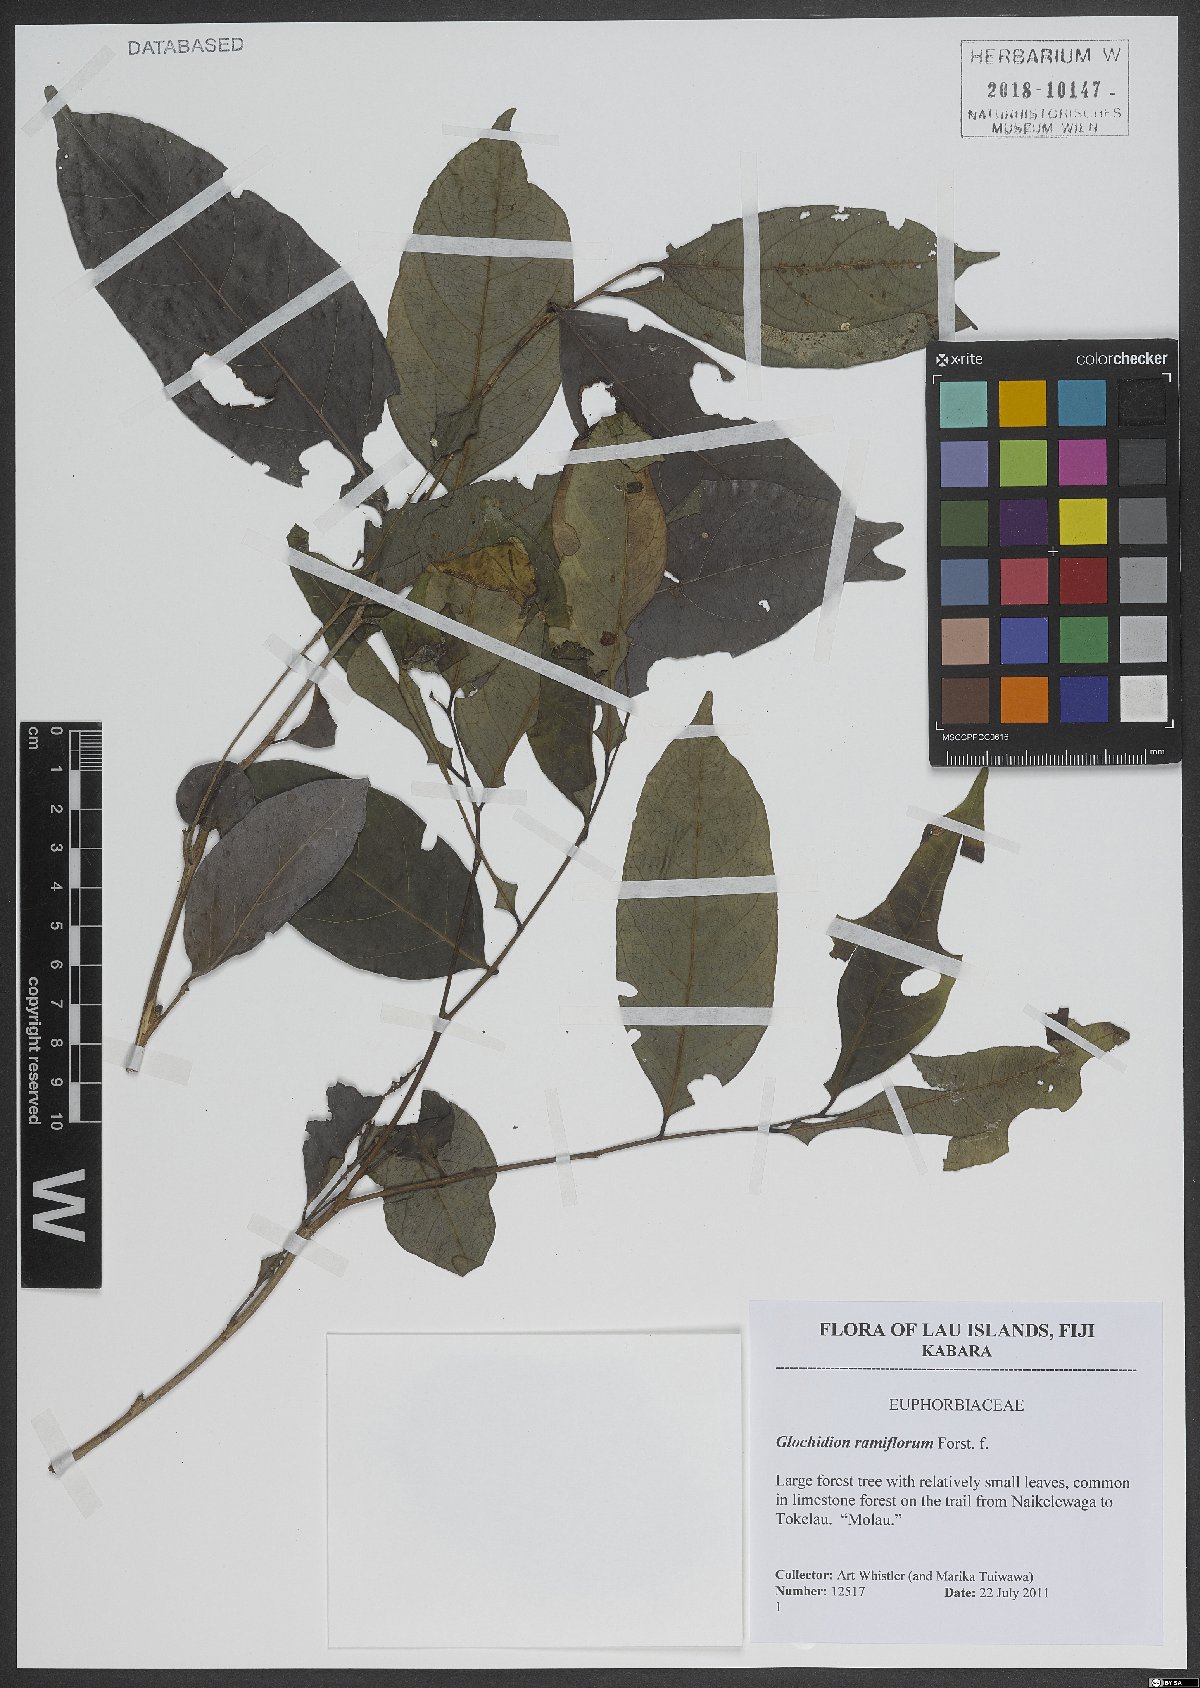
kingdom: Plantae
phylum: Tracheophyta
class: Magnoliopsida
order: Malpighiales
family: Phyllanthaceae
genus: Glochidion
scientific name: Glochidion ramiflorum
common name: Masame
